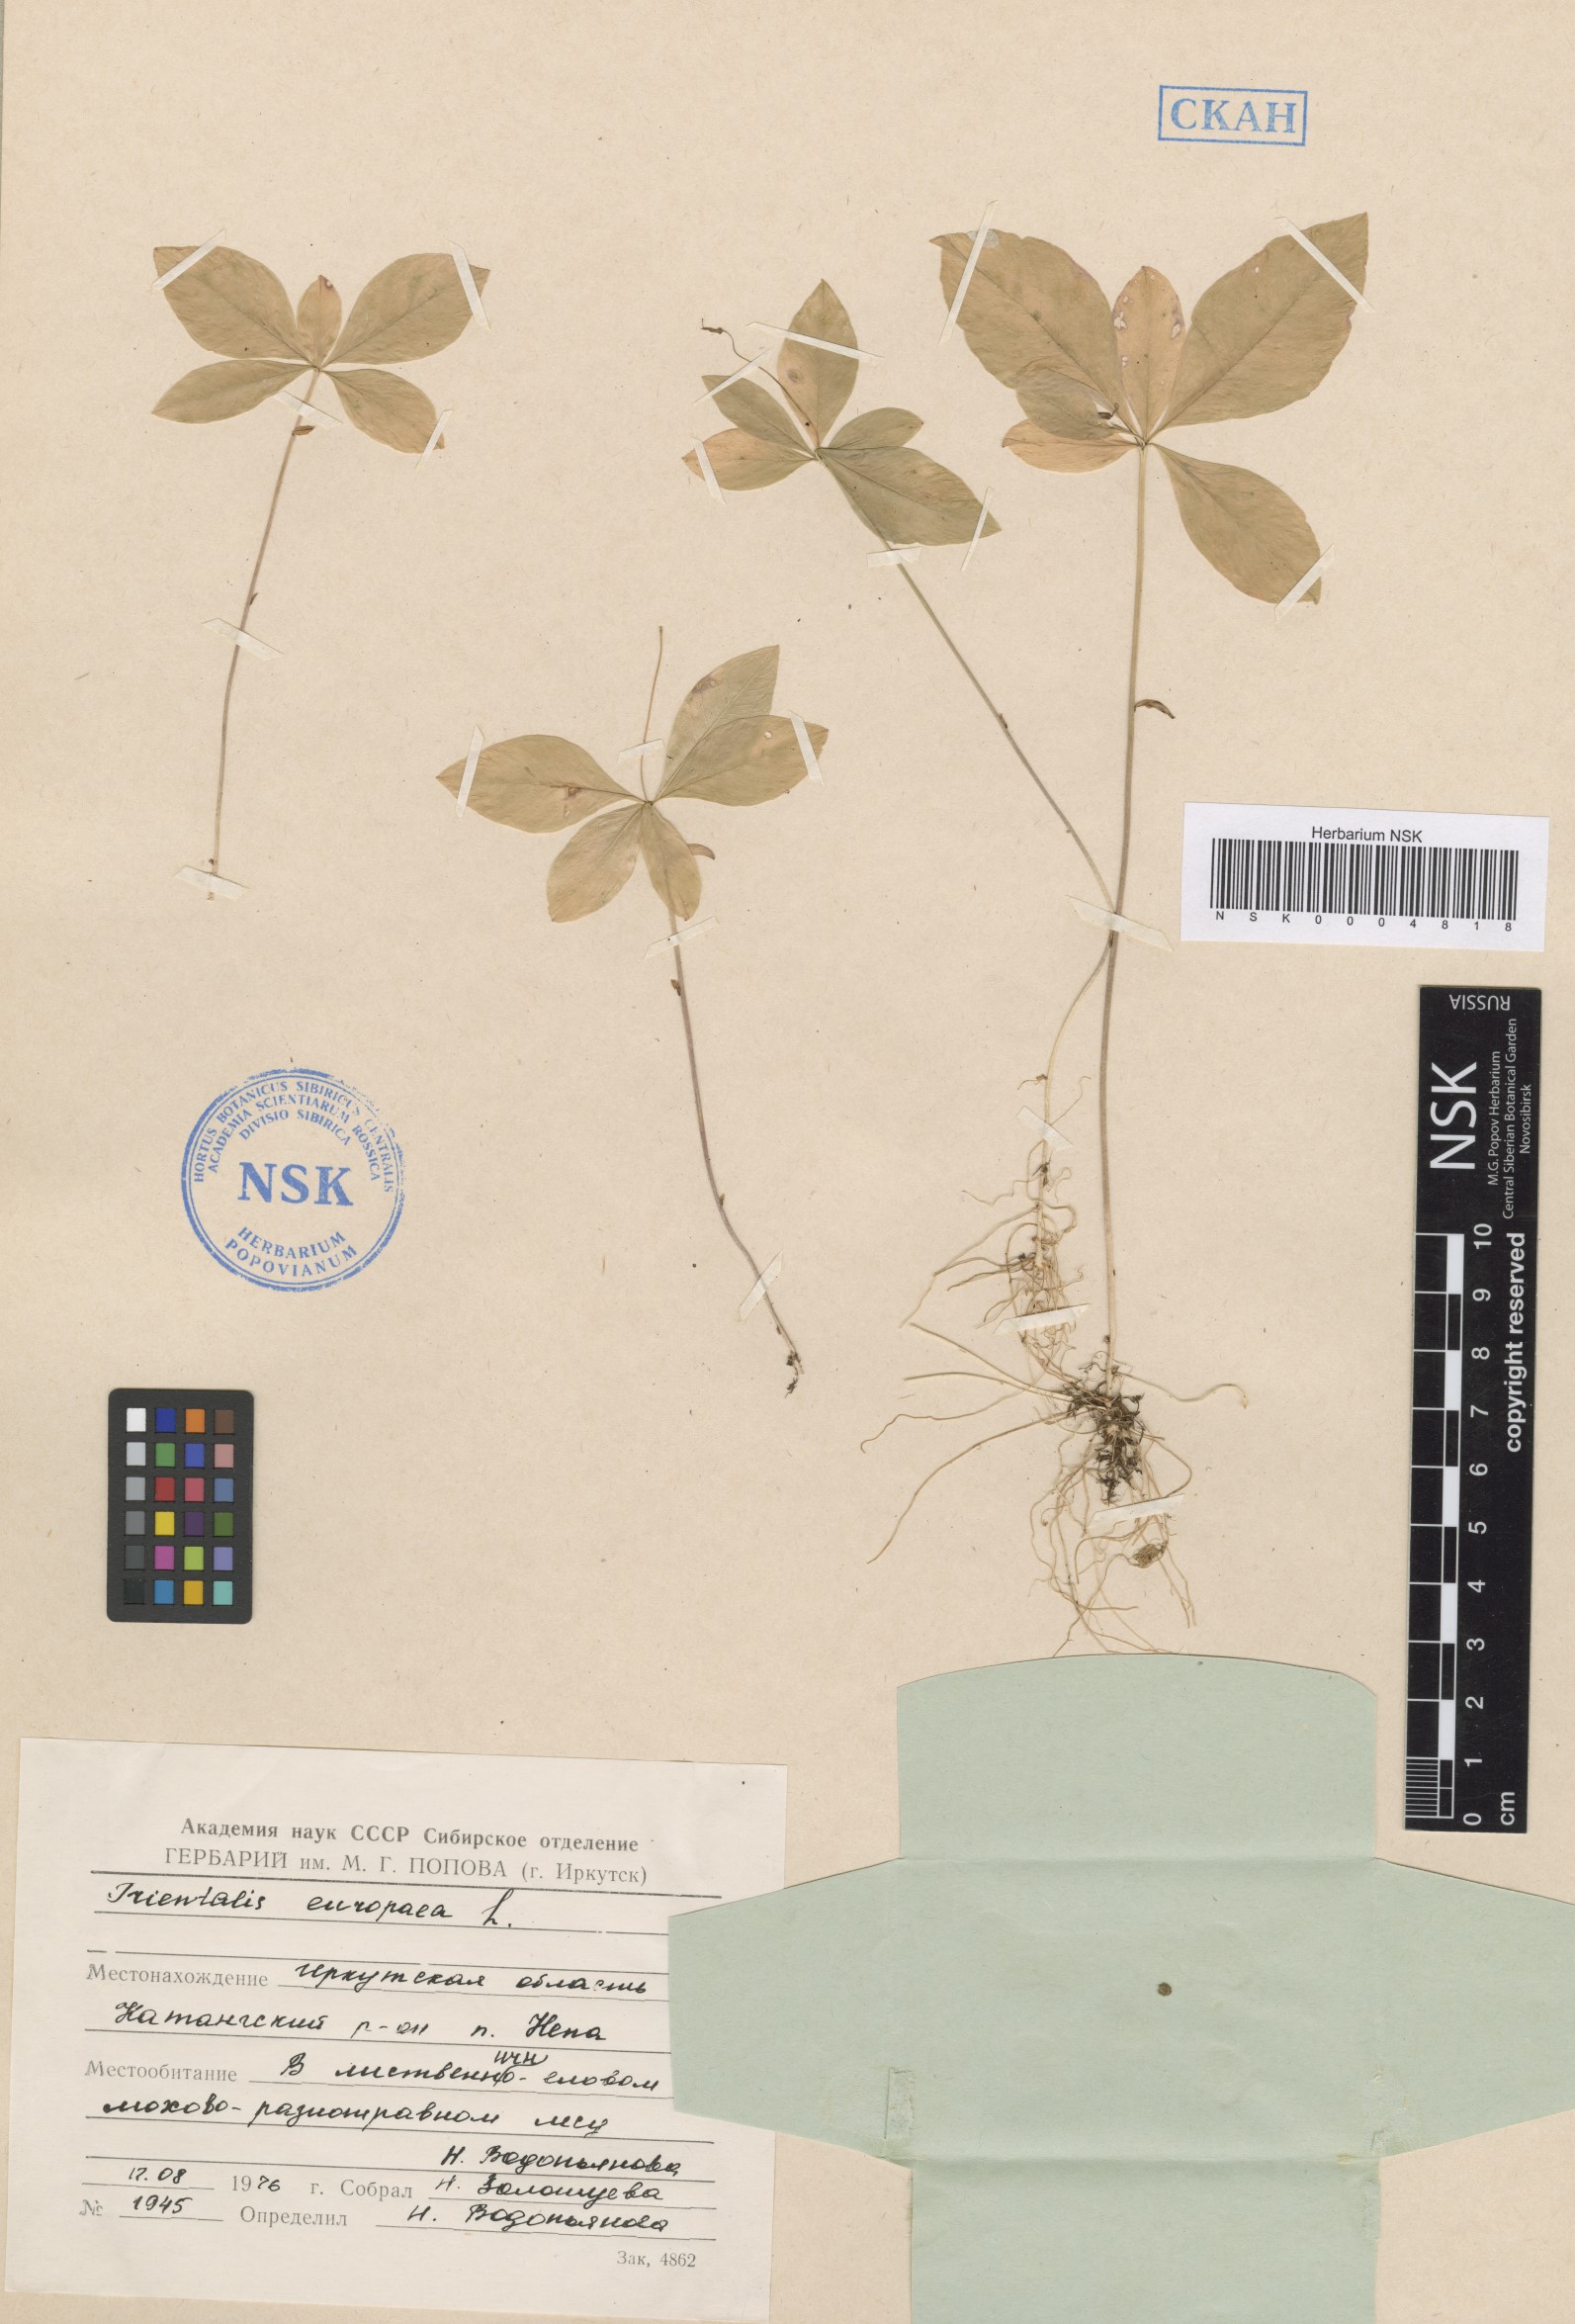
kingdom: Plantae
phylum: Tracheophyta
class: Magnoliopsida
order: Ericales
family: Primulaceae
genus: Lysimachia
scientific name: Lysimachia europaea
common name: Arctic starflower
